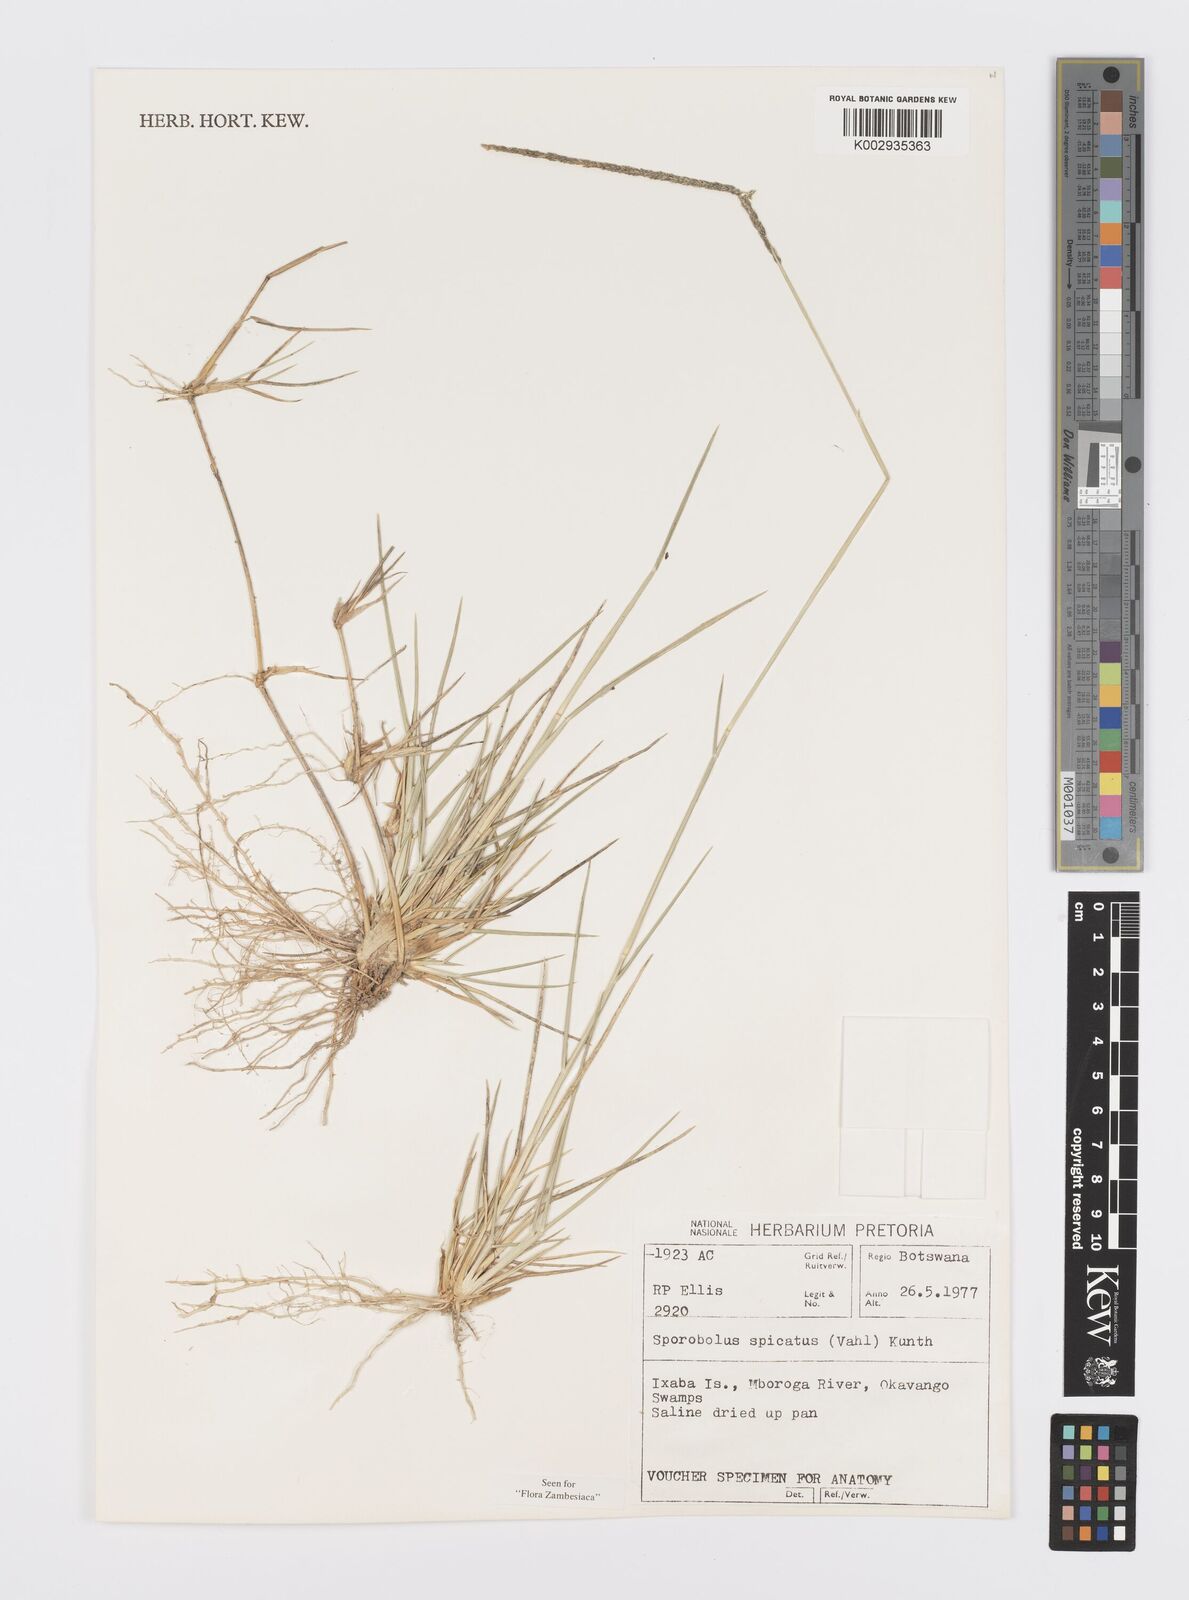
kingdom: Plantae
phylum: Tracheophyta
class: Liliopsida
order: Poales
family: Poaceae
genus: Sporobolus
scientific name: Sporobolus spicatus
